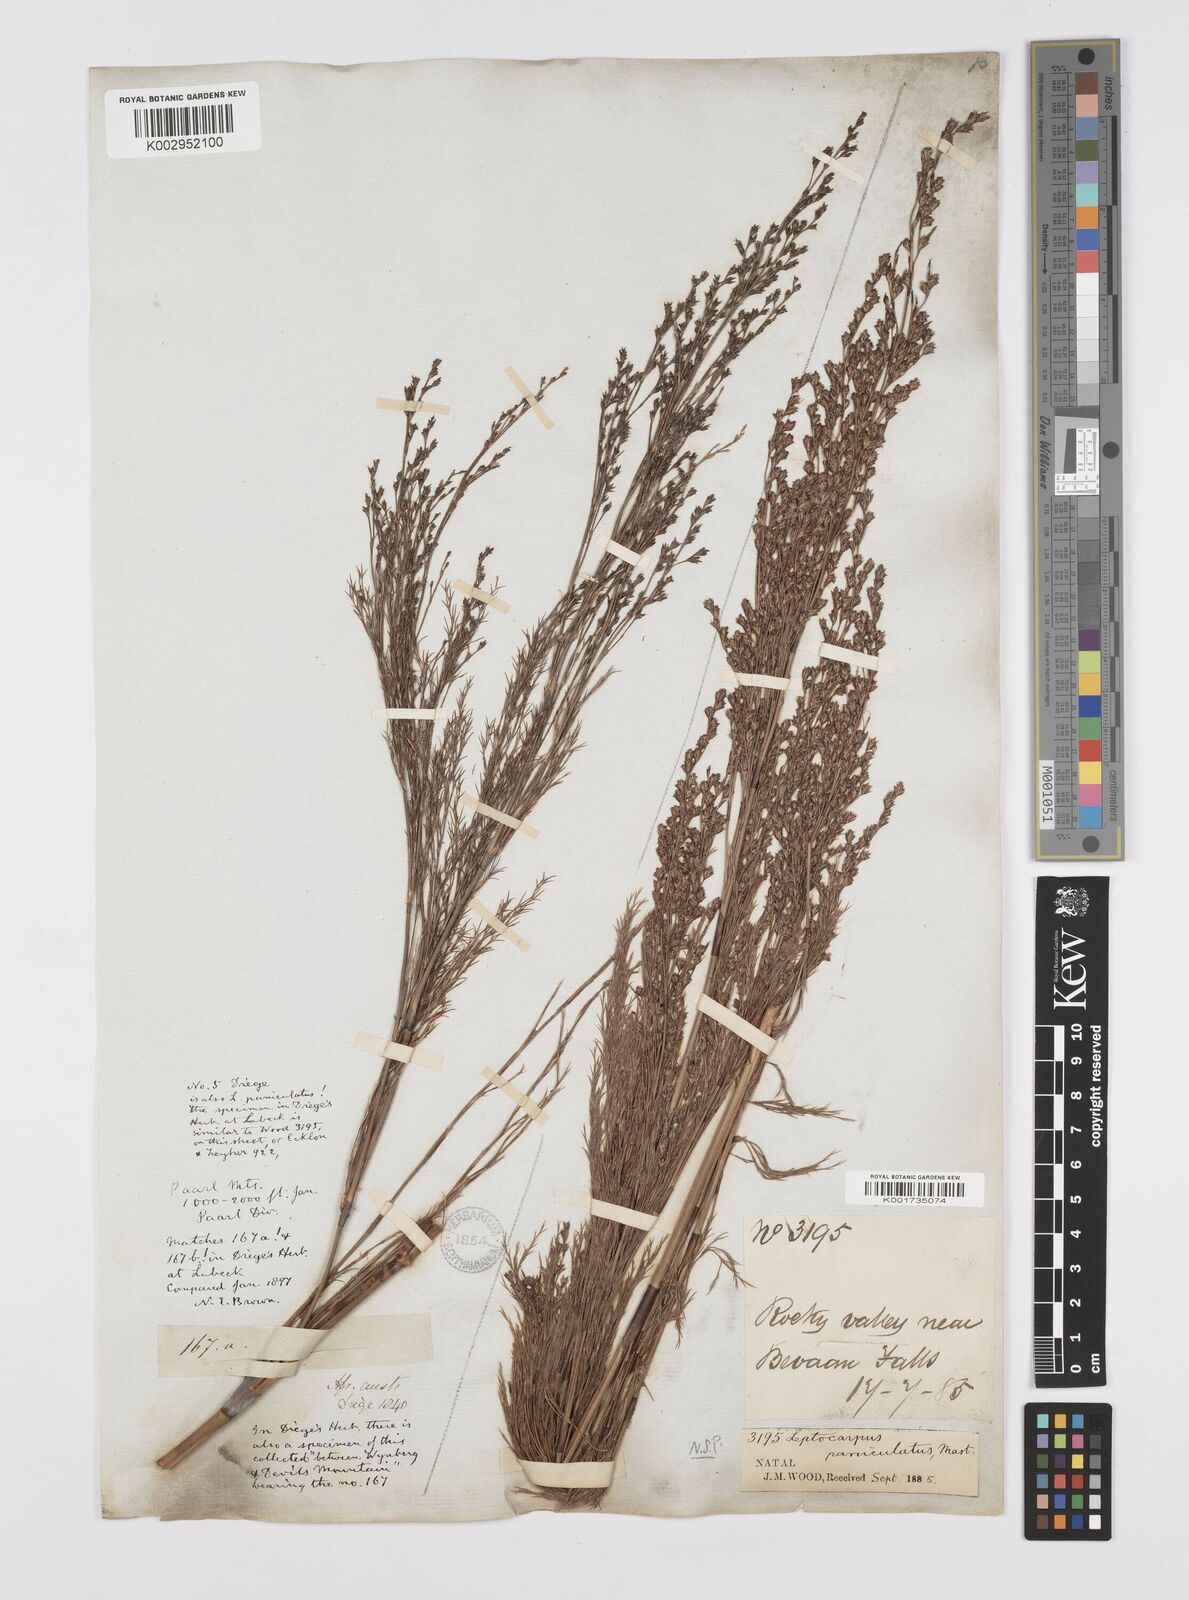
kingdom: Plantae
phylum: Tracheophyta
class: Liliopsida
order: Poales
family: Restionaceae
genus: Restio
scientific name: Restio paniculatus
